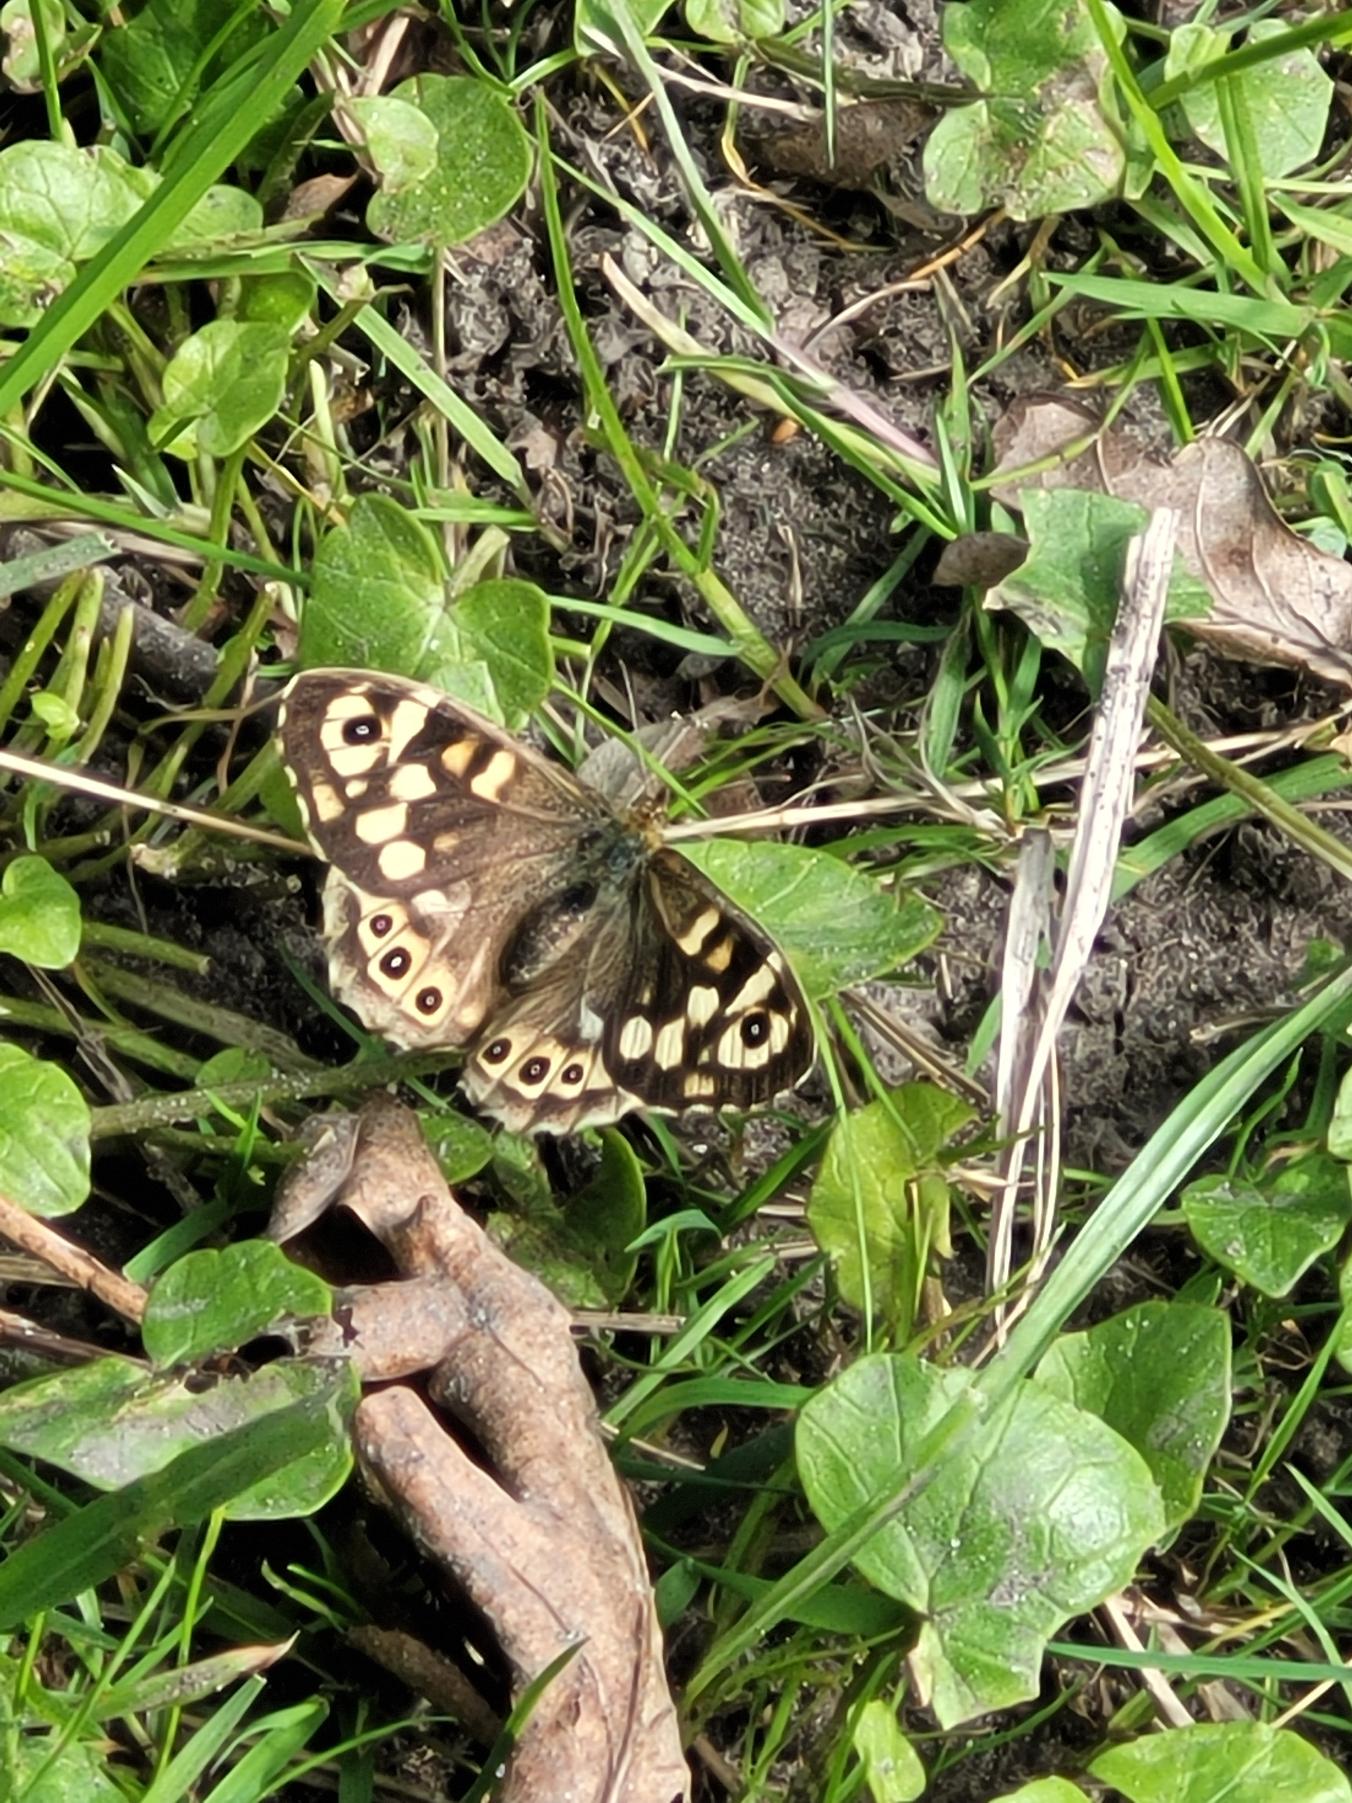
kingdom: Animalia
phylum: Arthropoda
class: Insecta
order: Lepidoptera
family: Nymphalidae
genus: Pararge
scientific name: Pararge aegeria
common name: Skovrandøje
